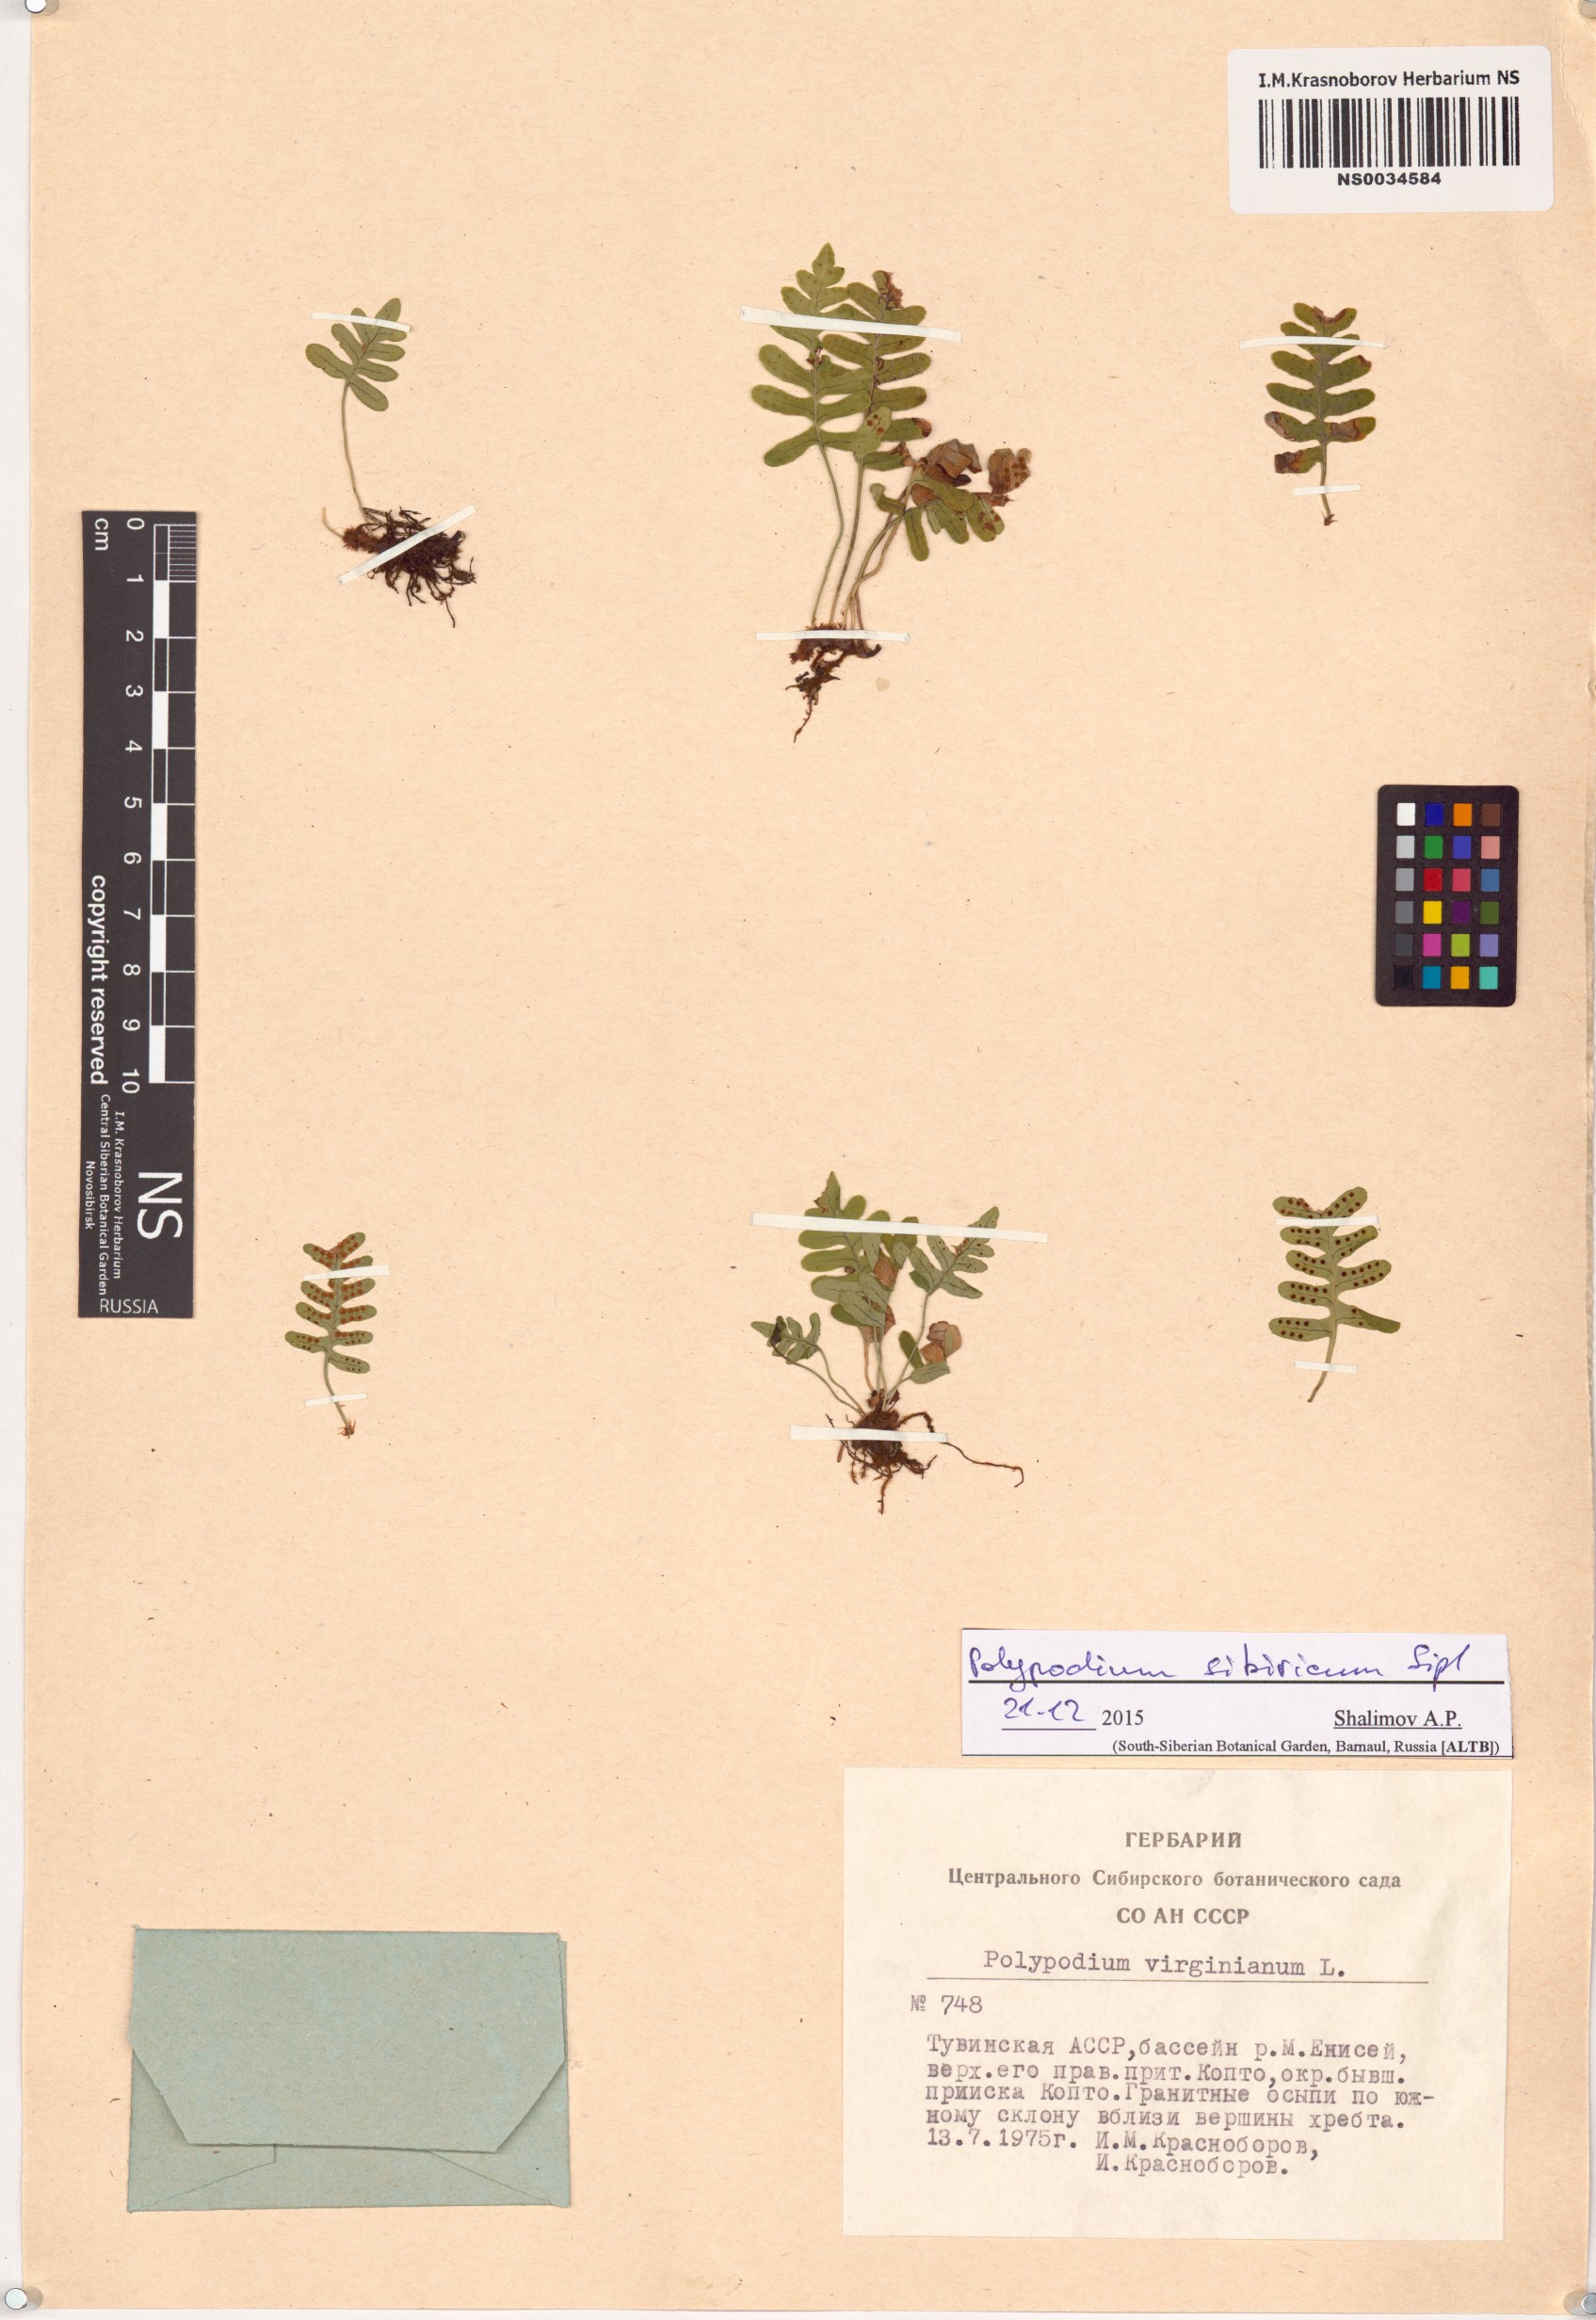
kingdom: Plantae
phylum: Tracheophyta
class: Polypodiopsida
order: Polypodiales
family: Polypodiaceae
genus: Polypodium
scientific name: Polypodium sibiricum
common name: Siberian polypody
